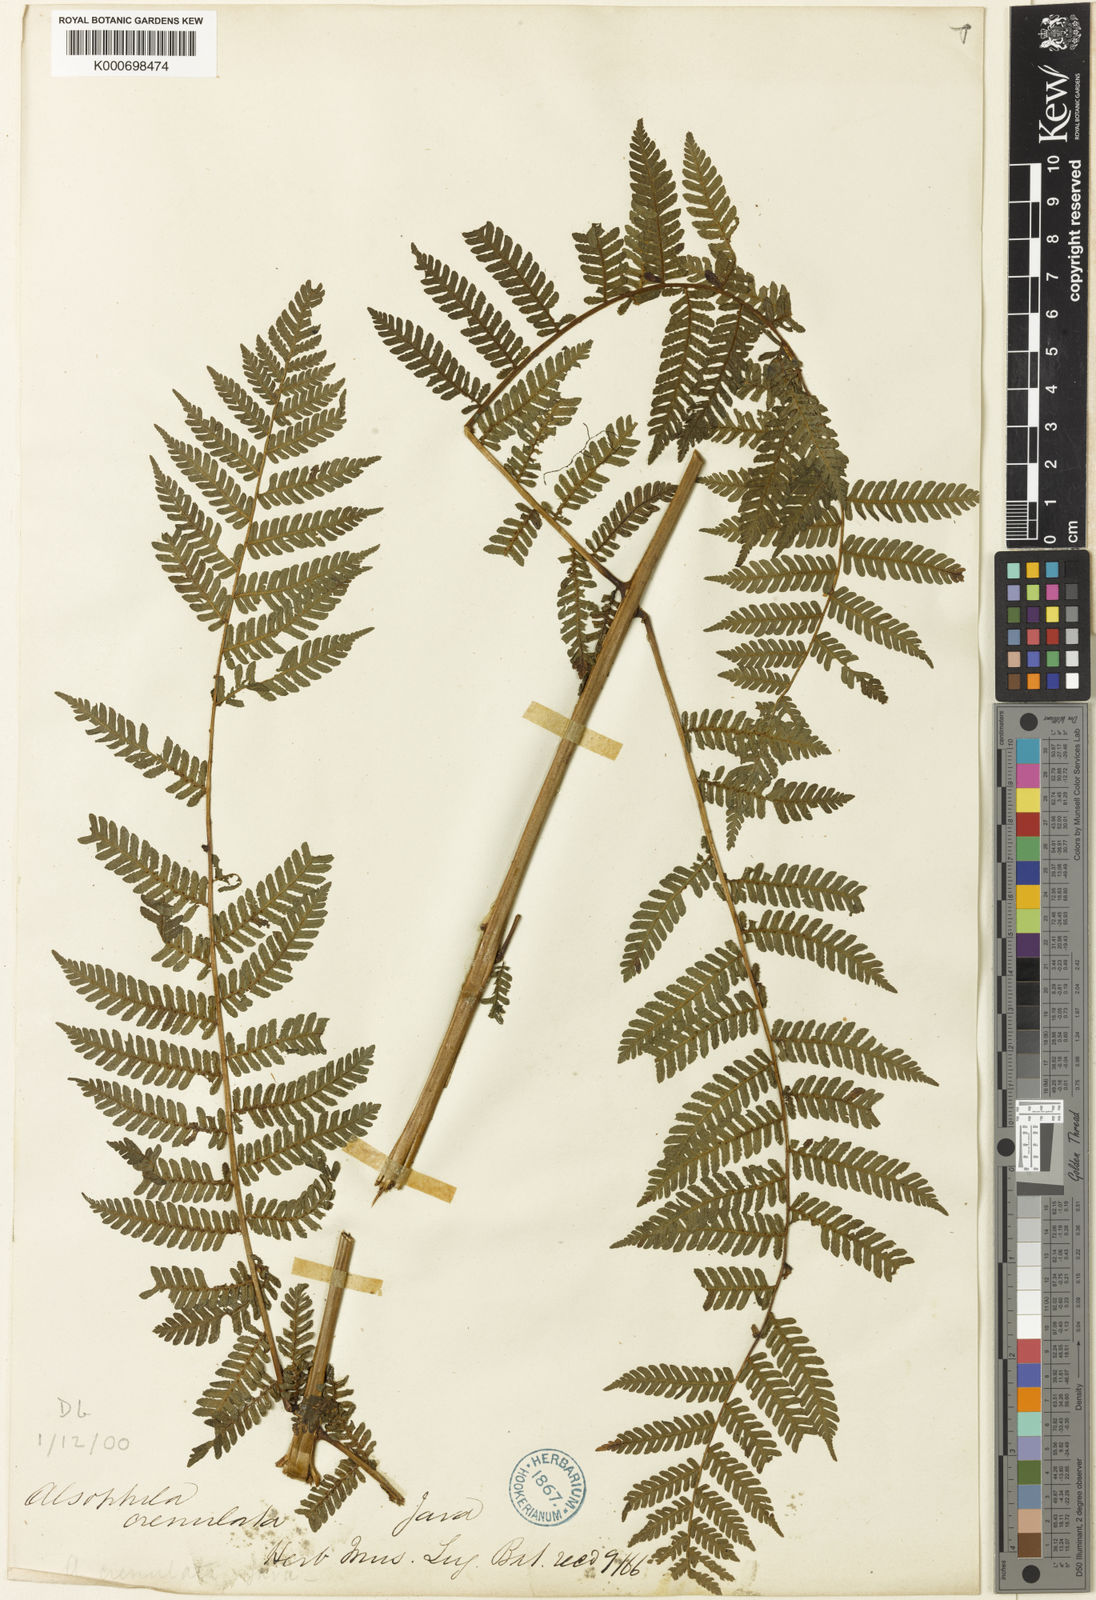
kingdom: Plantae
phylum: Tracheophyta
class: Polypodiopsida
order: Cyatheales
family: Cyatheaceae
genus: Alsophila
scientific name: Alsophila crenulata
